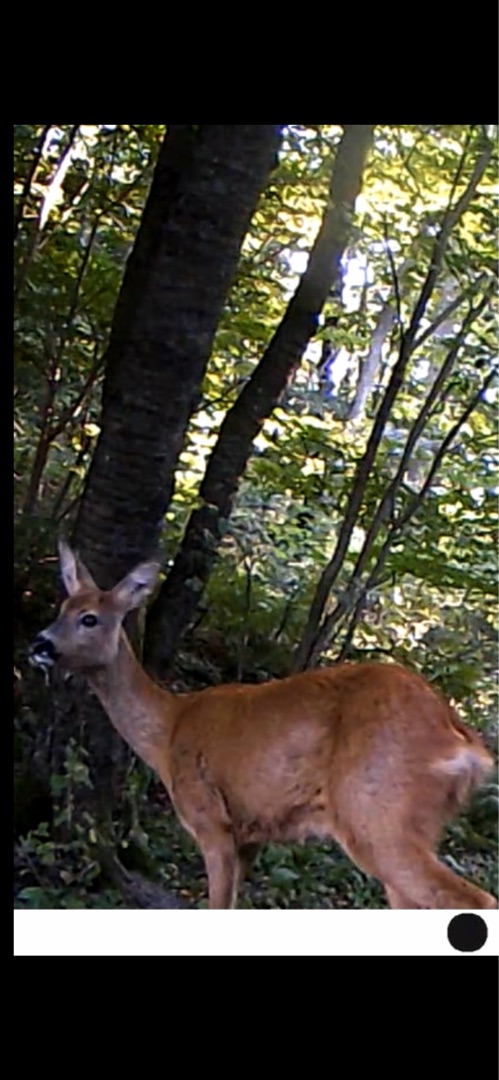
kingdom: Animalia
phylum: Chordata
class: Mammalia
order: Artiodactyla
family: Cervidae
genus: Capreolus
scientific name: Capreolus capreolus
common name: Rådyr
